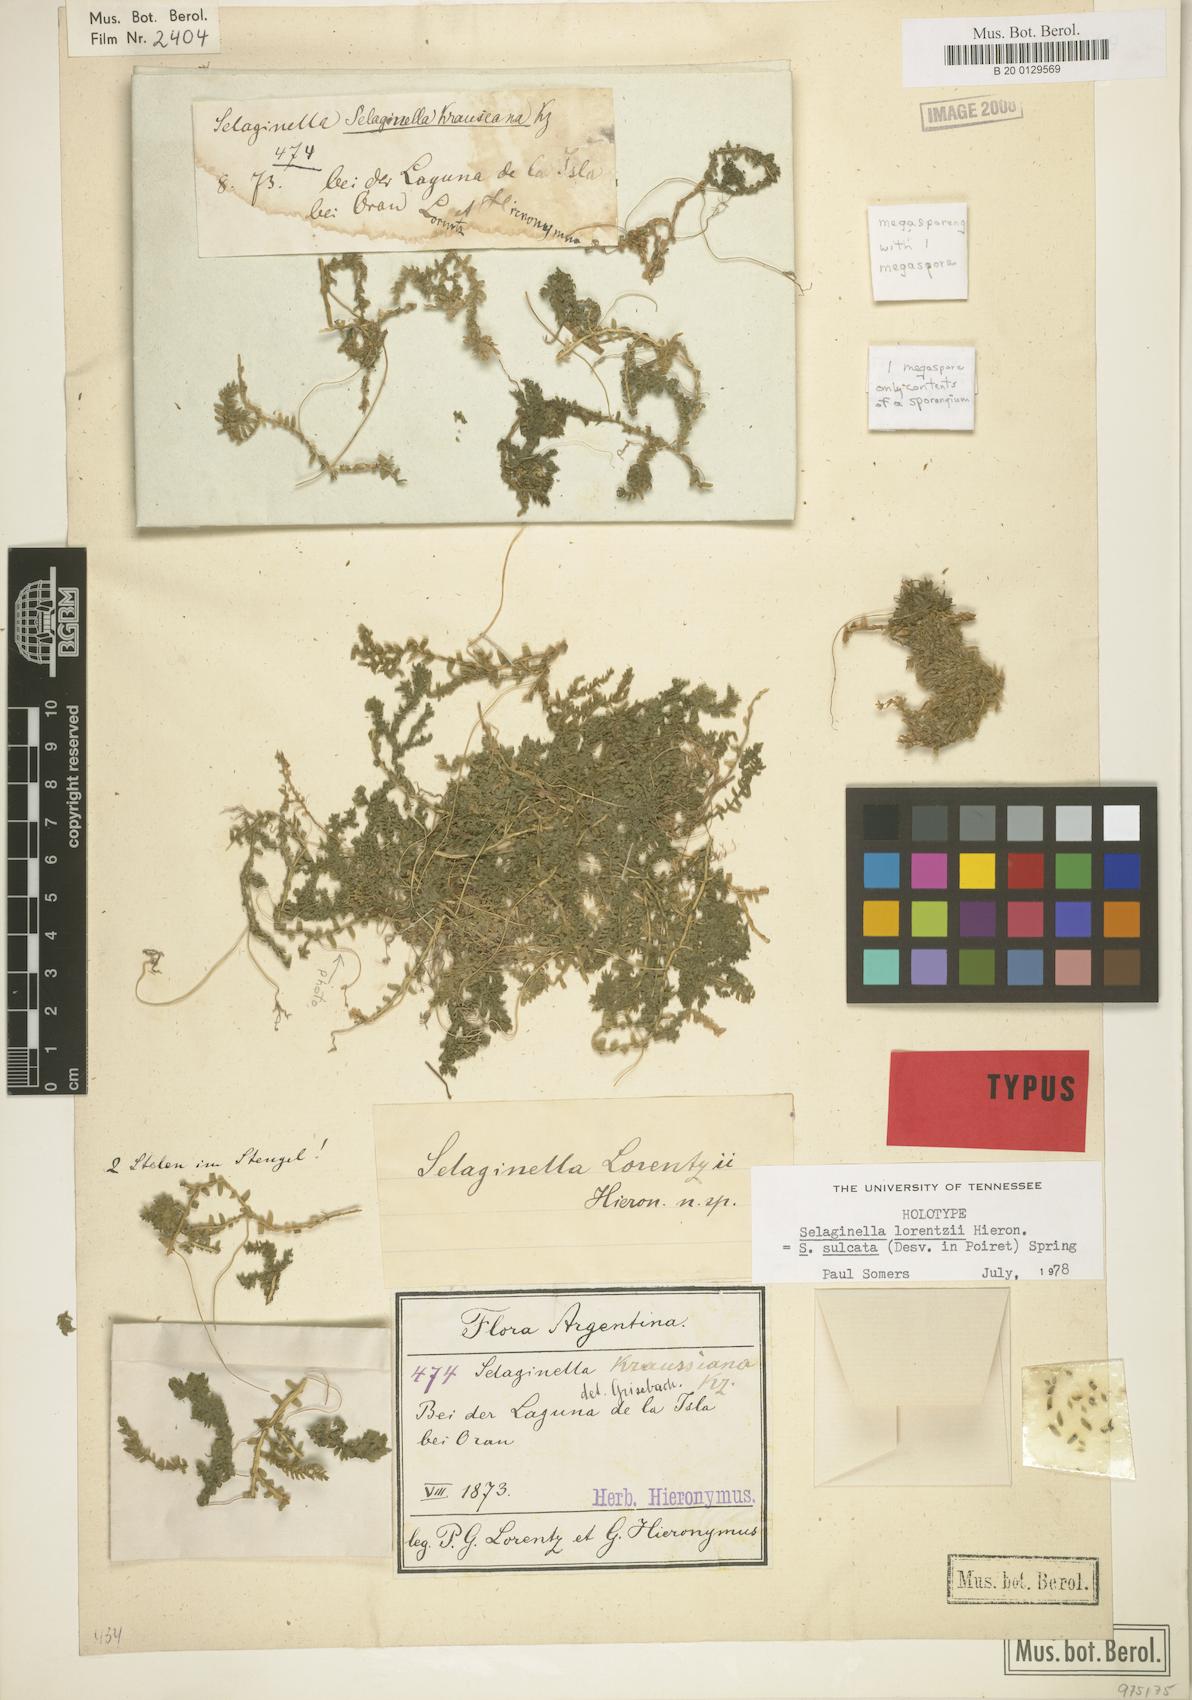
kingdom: Plantae
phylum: Tracheophyta
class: Lycopodiopsida
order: Selaginellales
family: Selaginellaceae
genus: Selaginella
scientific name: Selaginella sulcata
